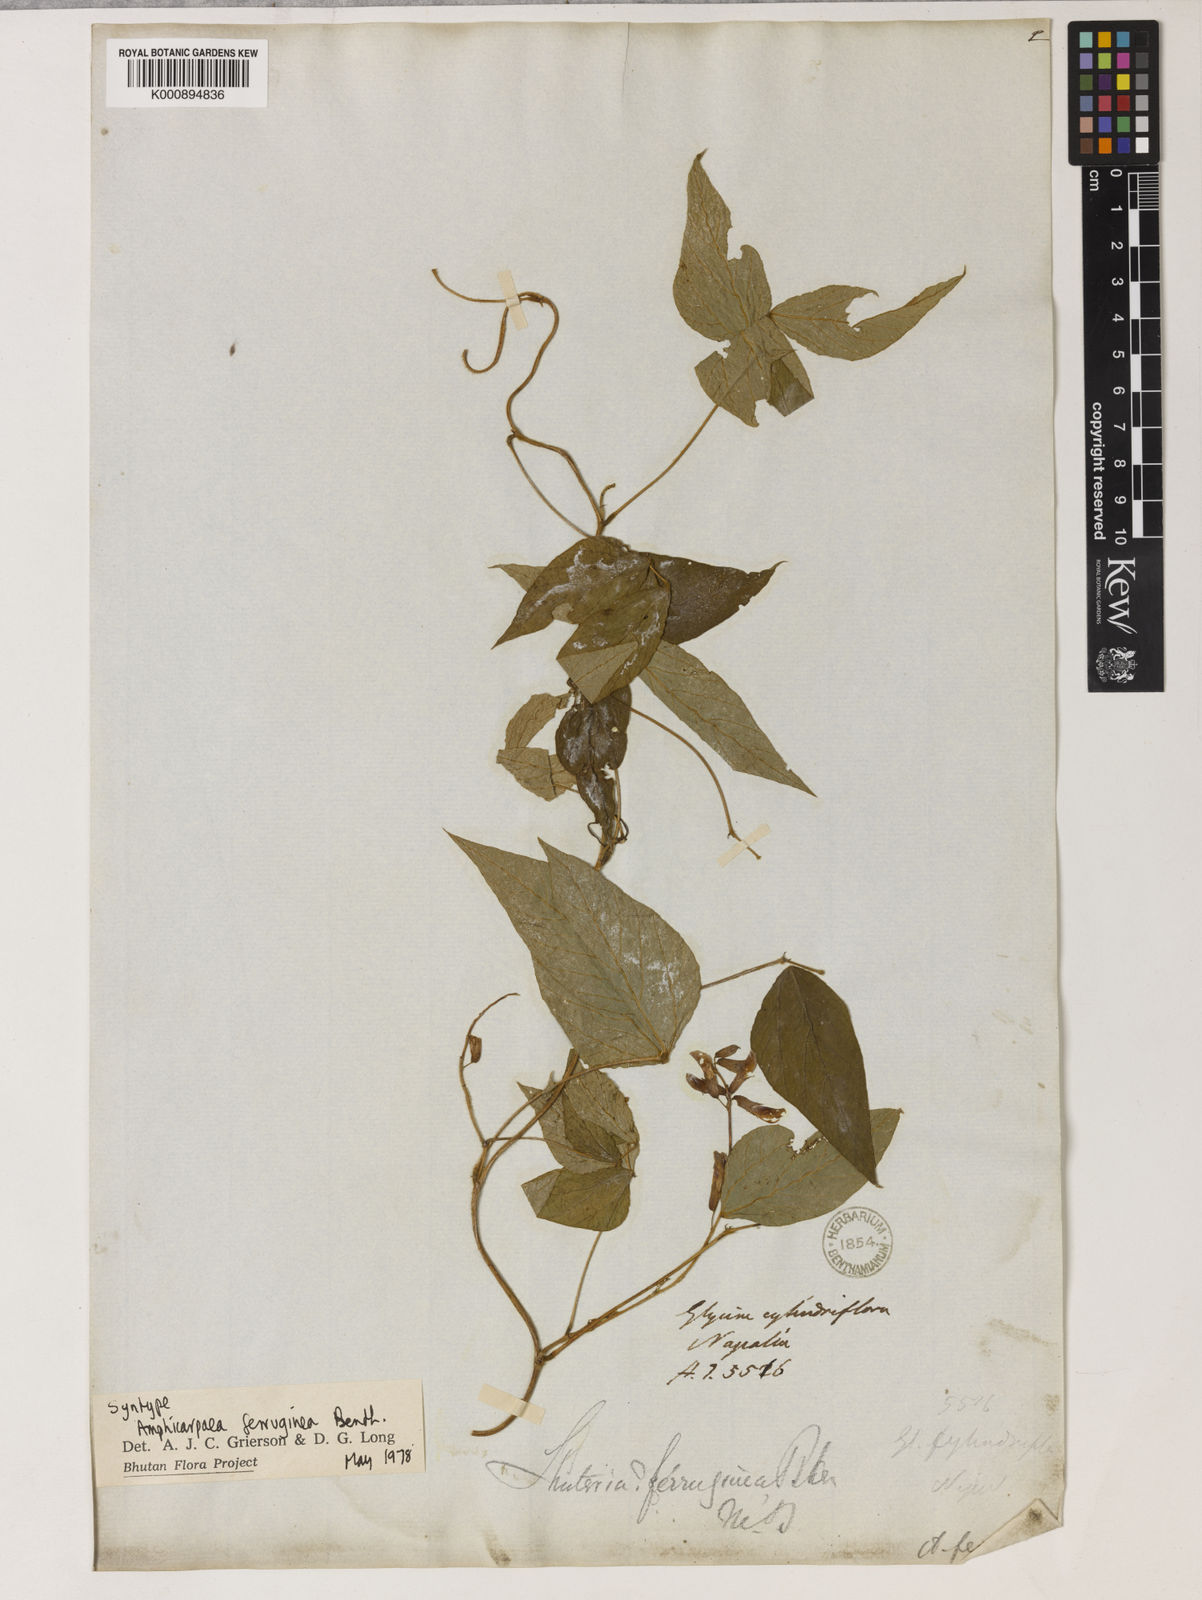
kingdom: Plantae
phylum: Tracheophyta
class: Magnoliopsida
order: Fabales
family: Fabaceae
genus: Amphicarpaea
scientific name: Amphicarpaea ferruginea
